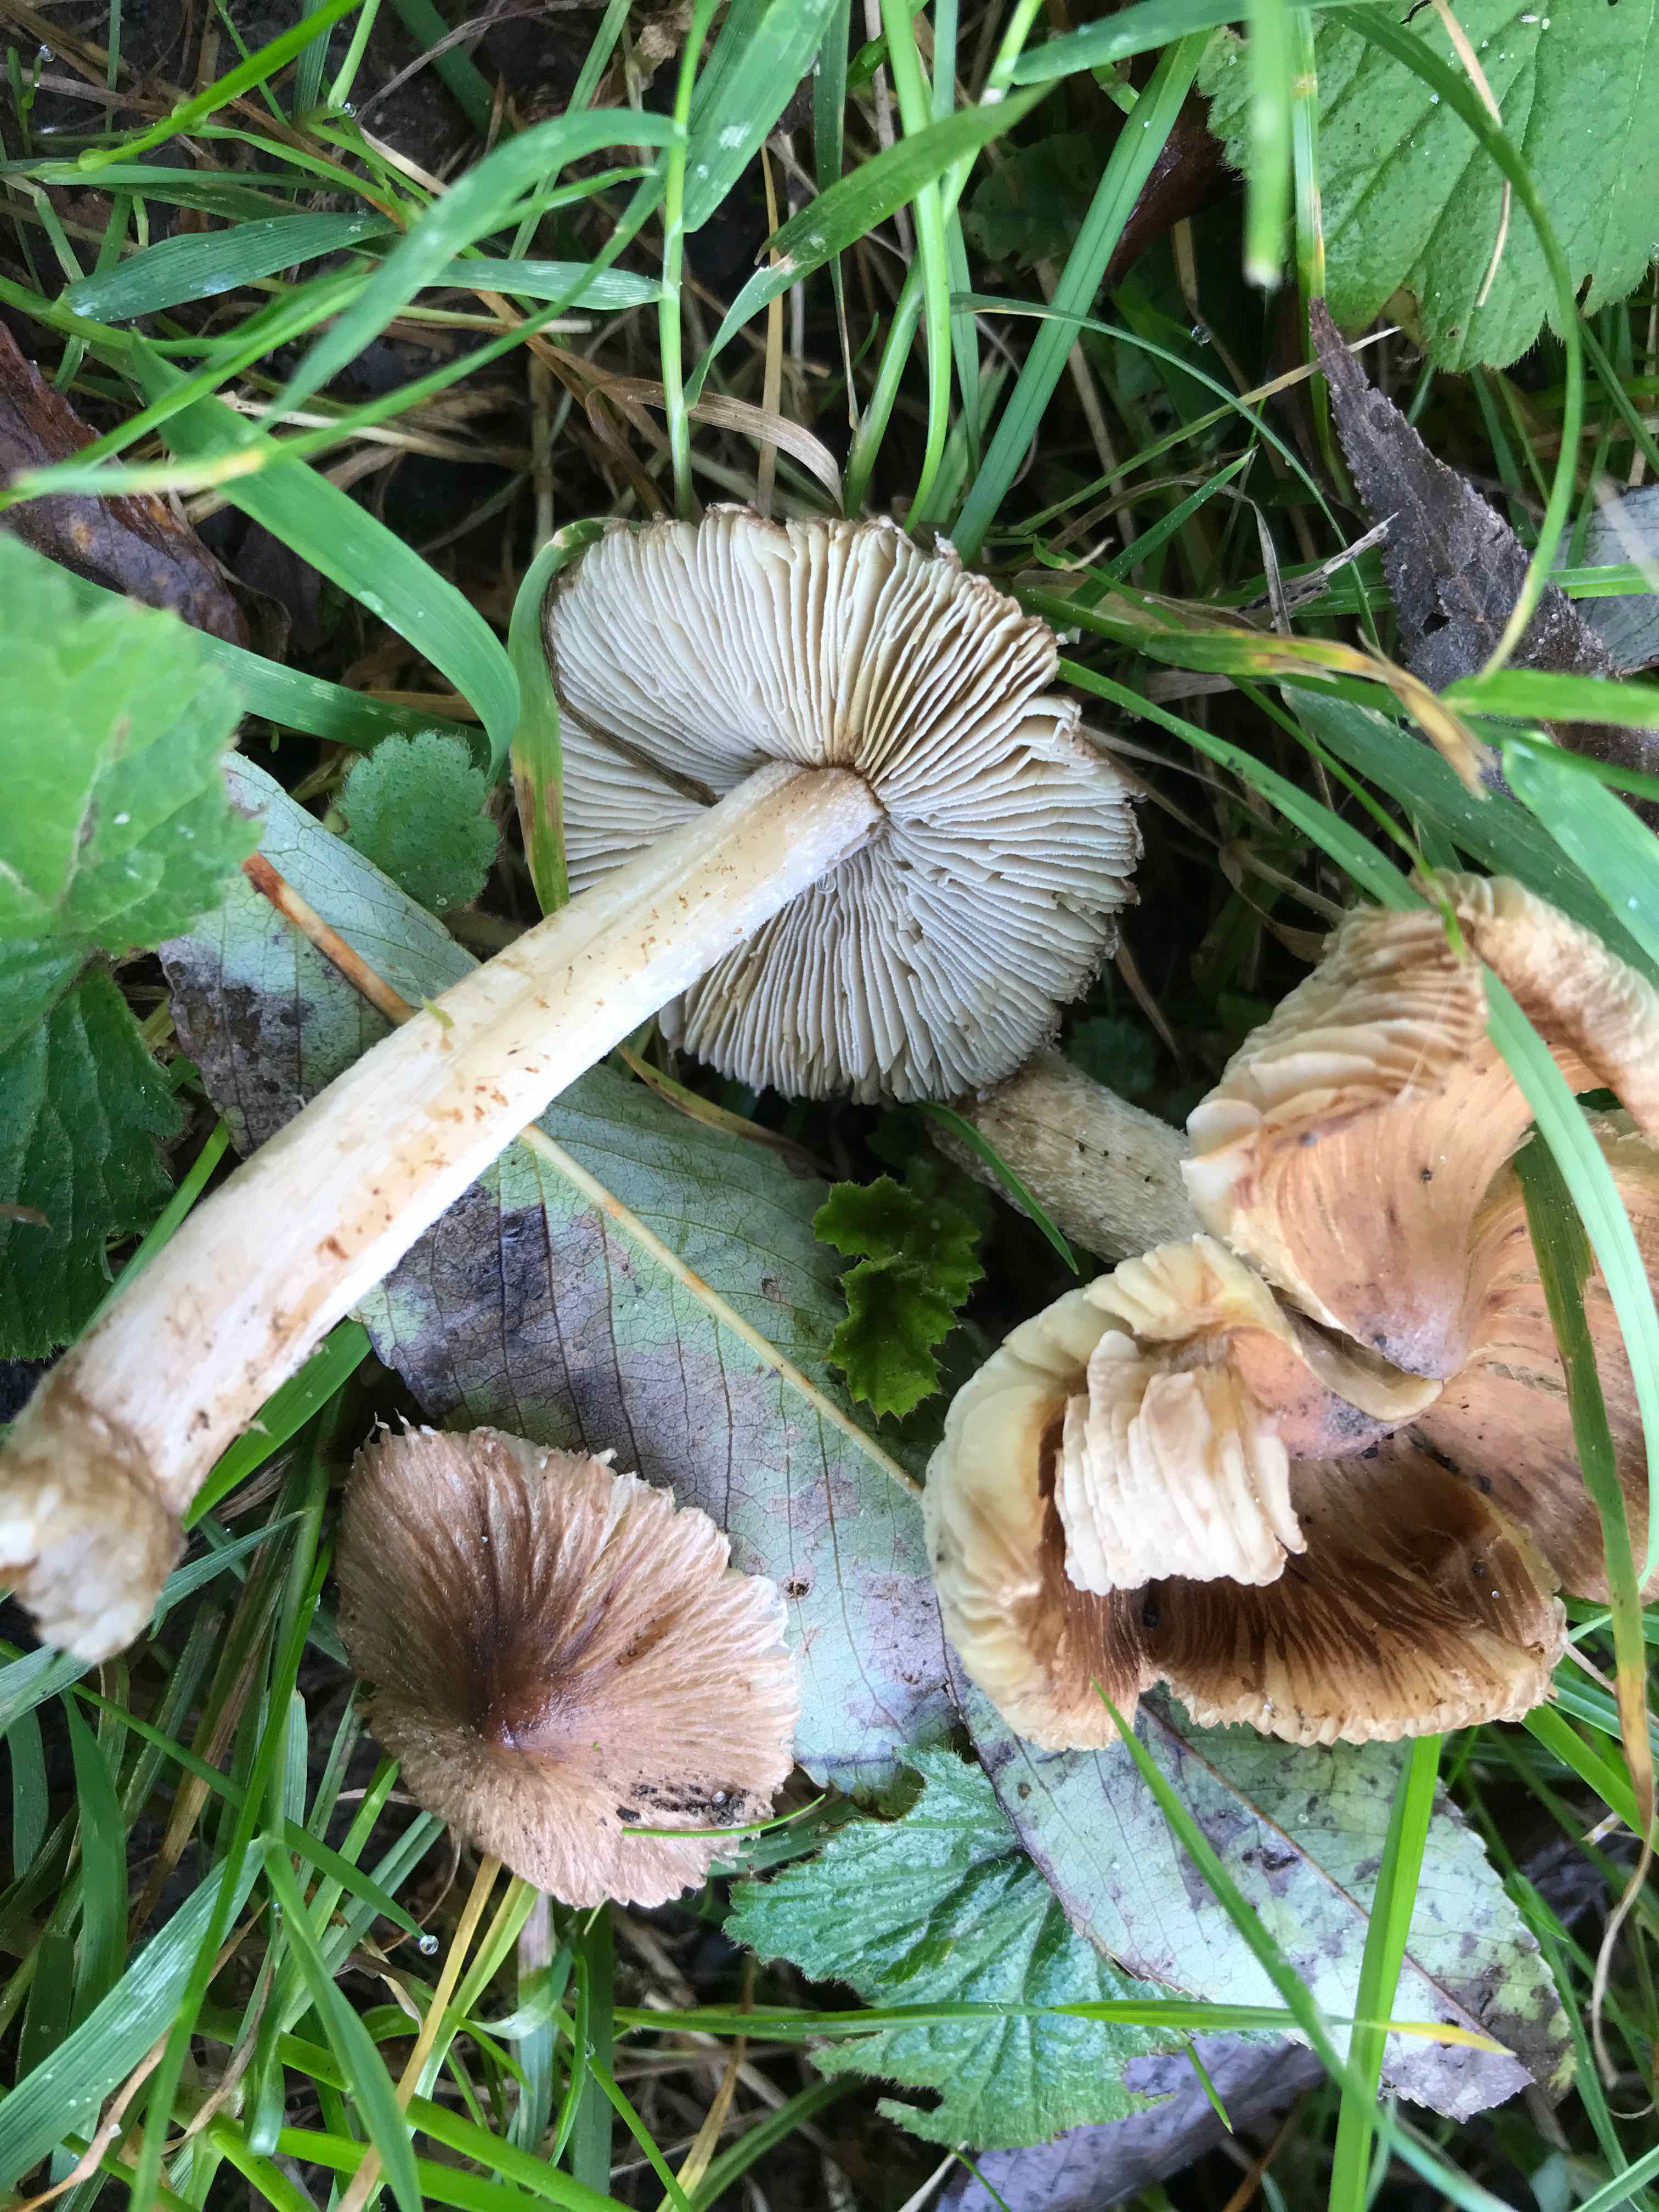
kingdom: Fungi
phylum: Basidiomycota
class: Agaricomycetes
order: Agaricales
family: Inocybaceae
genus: Pseudosperma
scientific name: Pseudosperma
